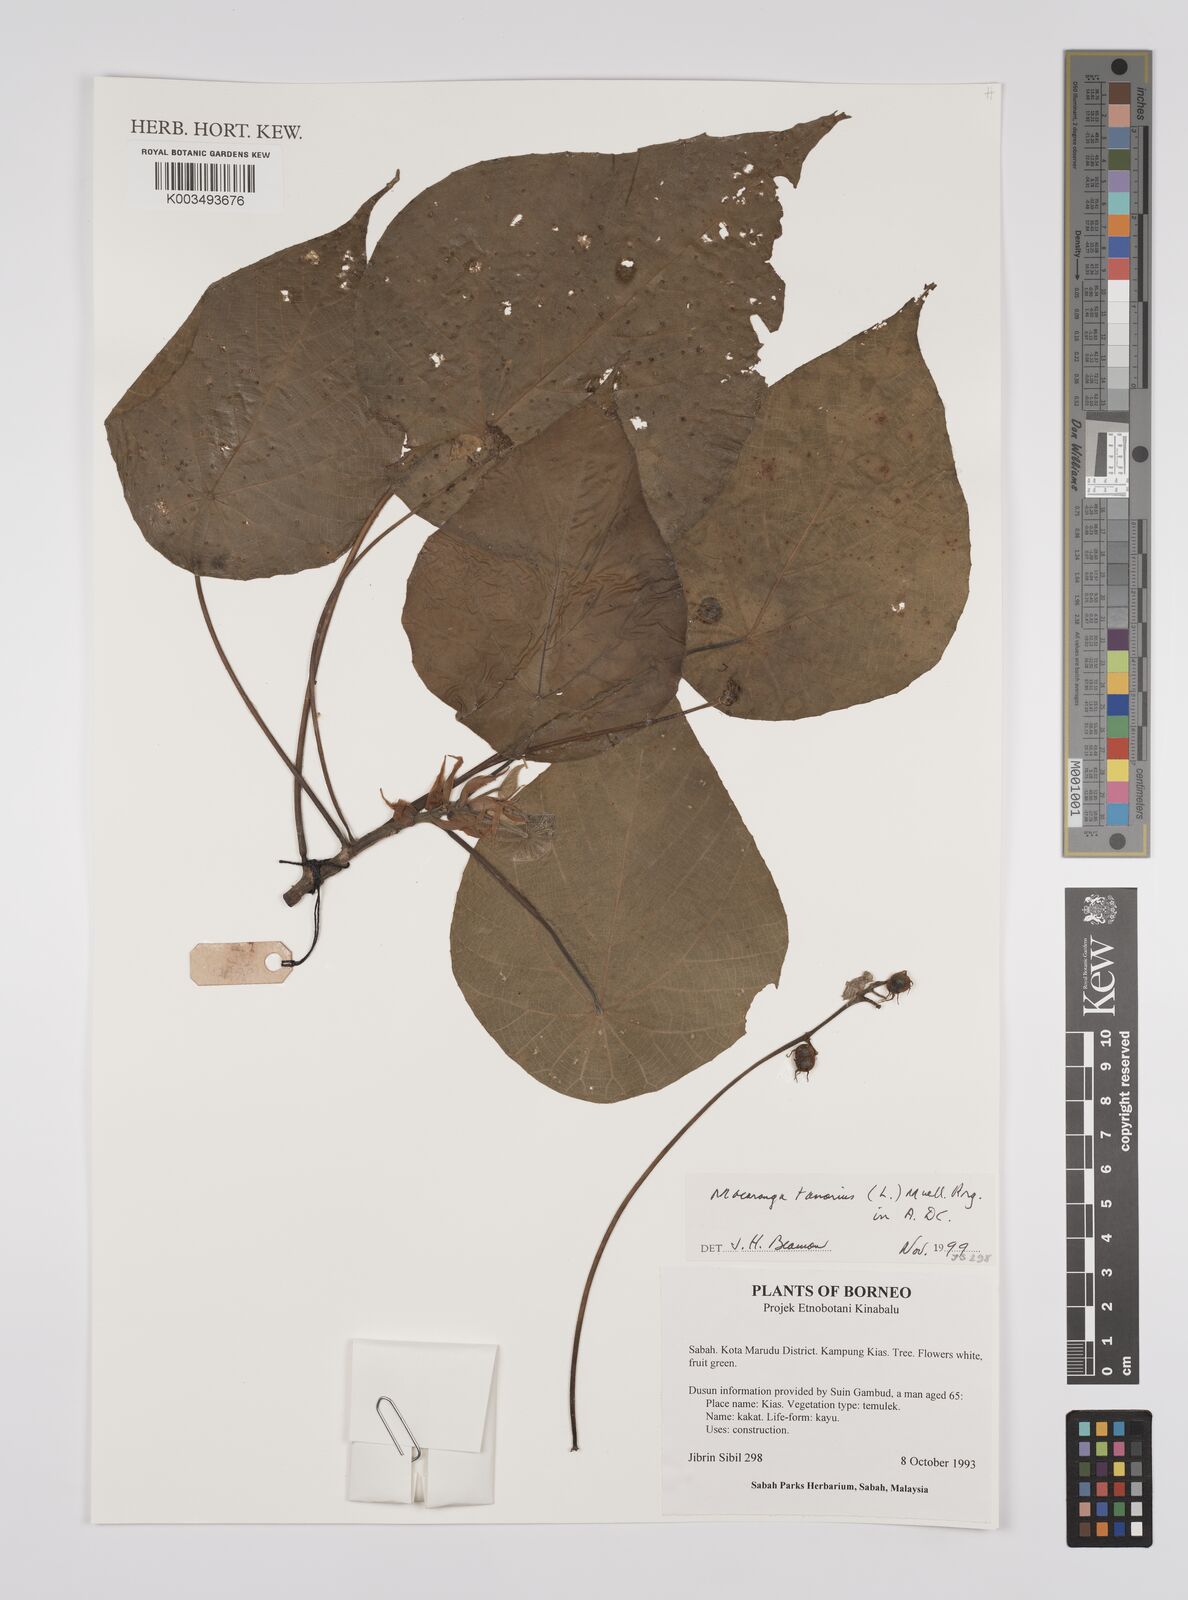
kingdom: Plantae
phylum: Tracheophyta
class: Magnoliopsida
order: Malpighiales
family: Euphorbiaceae
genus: Macaranga
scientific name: Macaranga tanarius
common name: Parasol leaf tree
